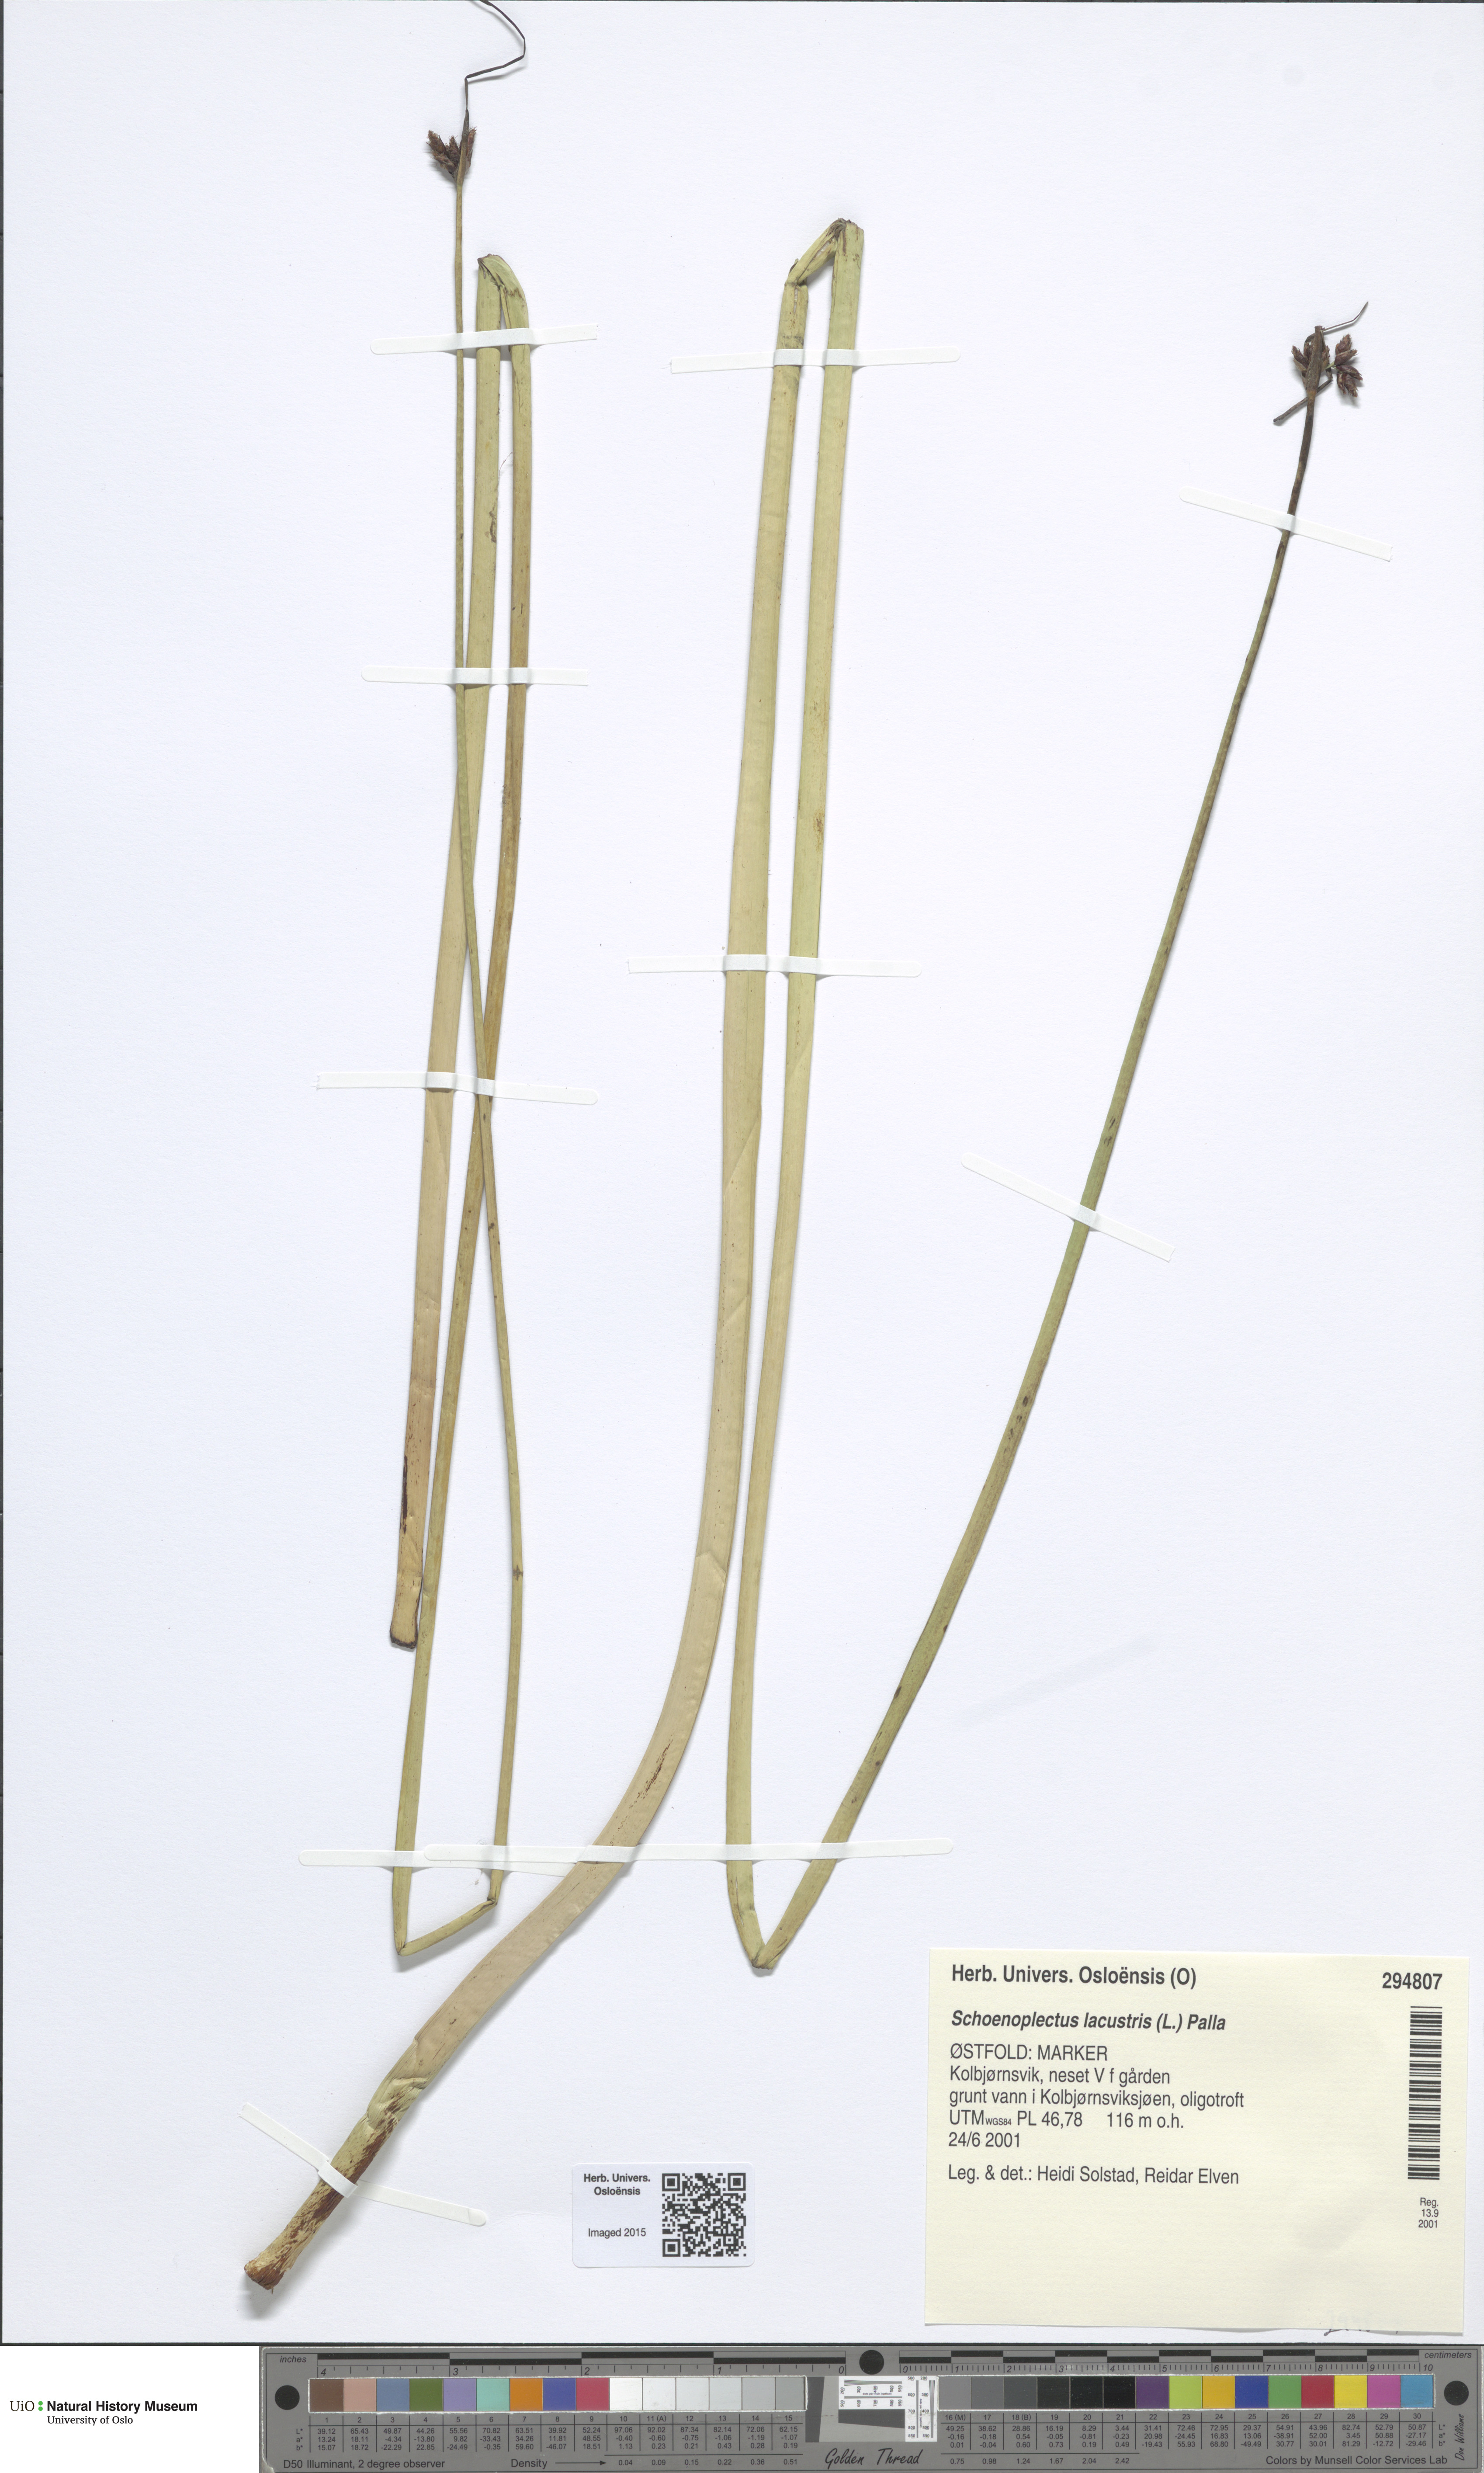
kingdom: Plantae
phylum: Tracheophyta
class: Liliopsida
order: Poales
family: Cyperaceae
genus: Schoenoplectus
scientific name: Schoenoplectus lacustris
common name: Common club-rush
